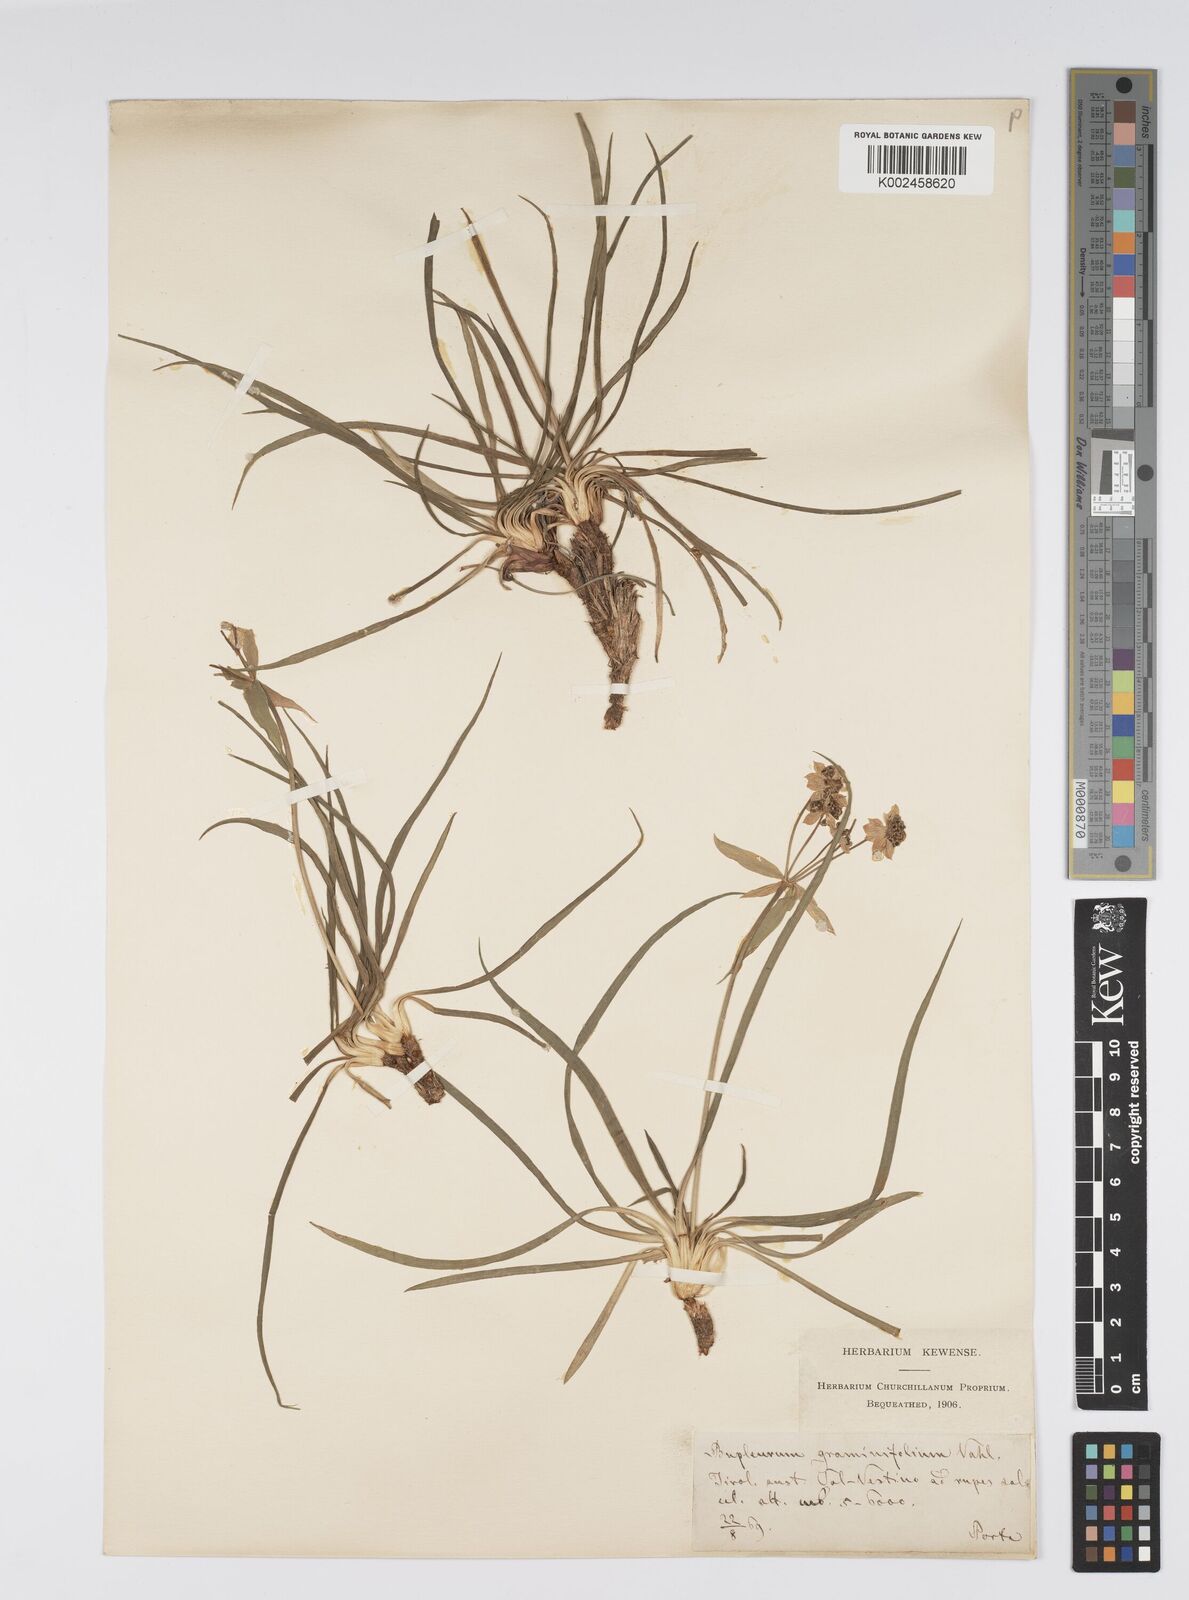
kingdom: Plantae
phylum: Tracheophyta
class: Magnoliopsida
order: Apiales
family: Apiaceae
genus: Bupleurum
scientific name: Bupleurum petraeum
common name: Rock hare's-ear
